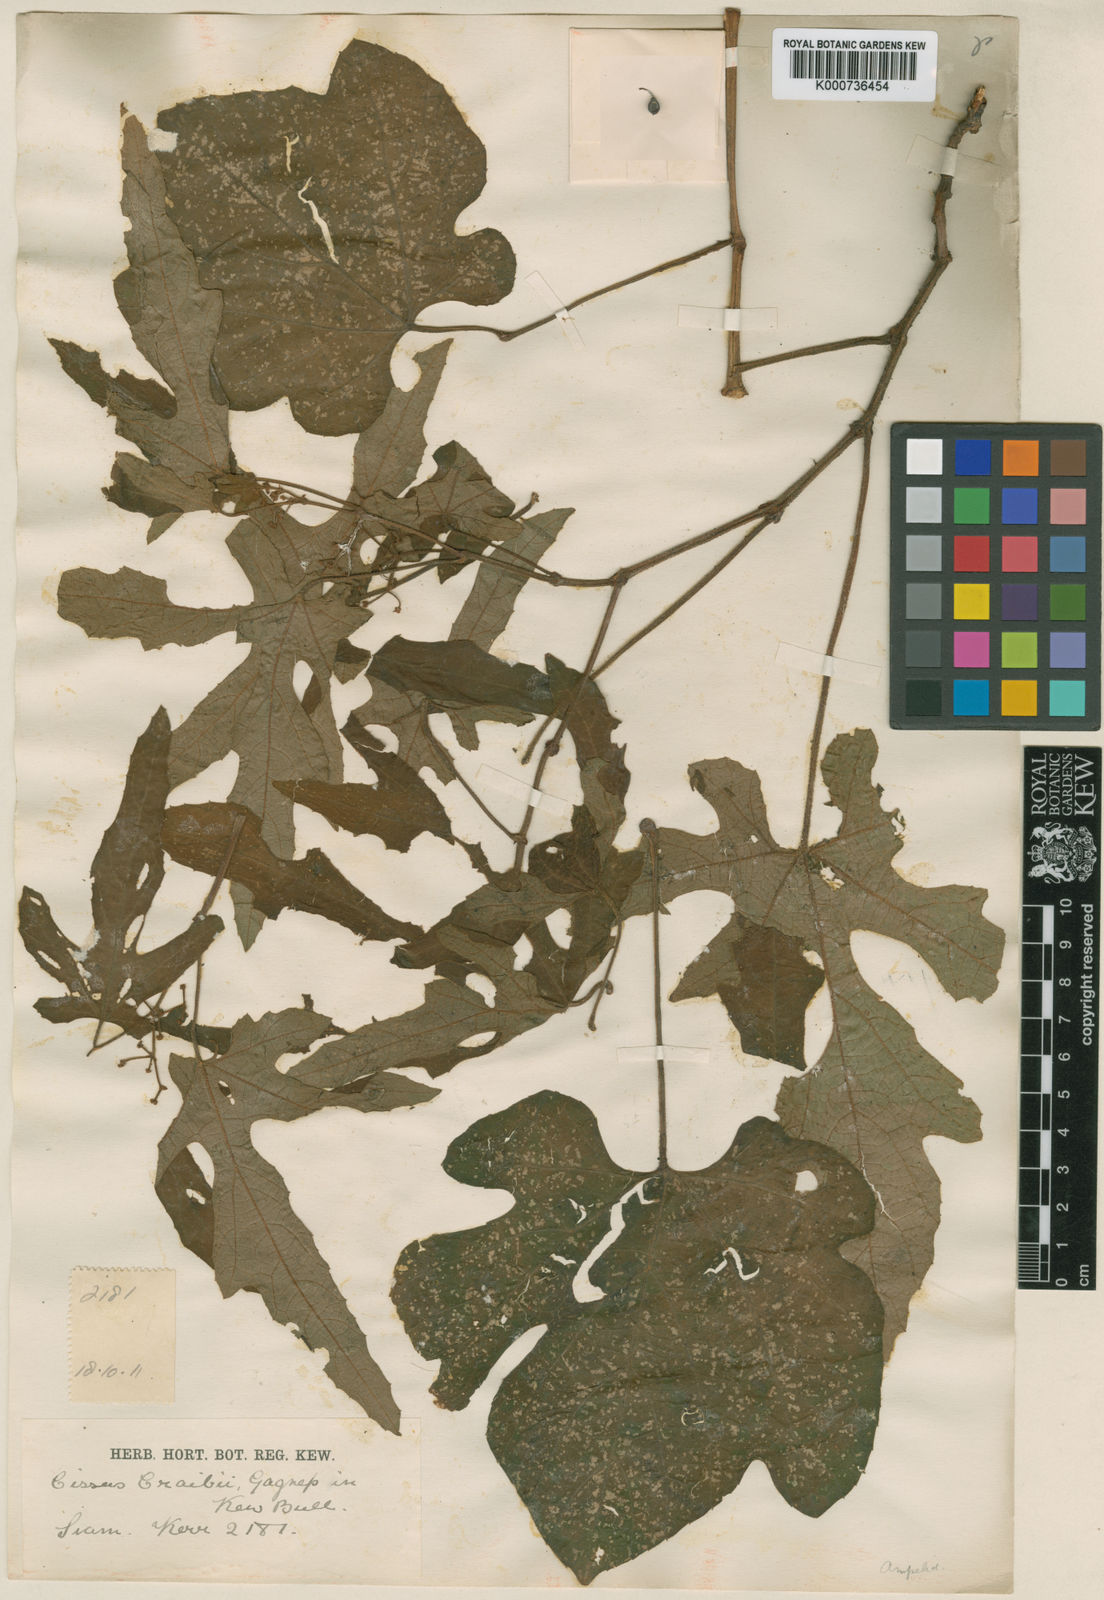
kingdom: Plantae
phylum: Tracheophyta
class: Magnoliopsida
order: Vitales
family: Vitaceae
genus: Cissus
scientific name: Cissus craibii
